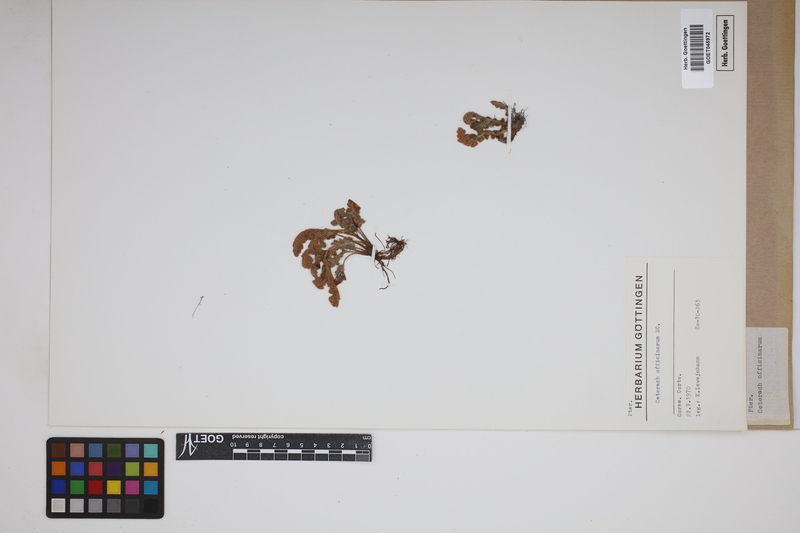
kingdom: Plantae
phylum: Tracheophyta
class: Polypodiopsida
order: Polypodiales
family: Aspleniaceae
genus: Asplenium
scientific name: Asplenium ceterach
